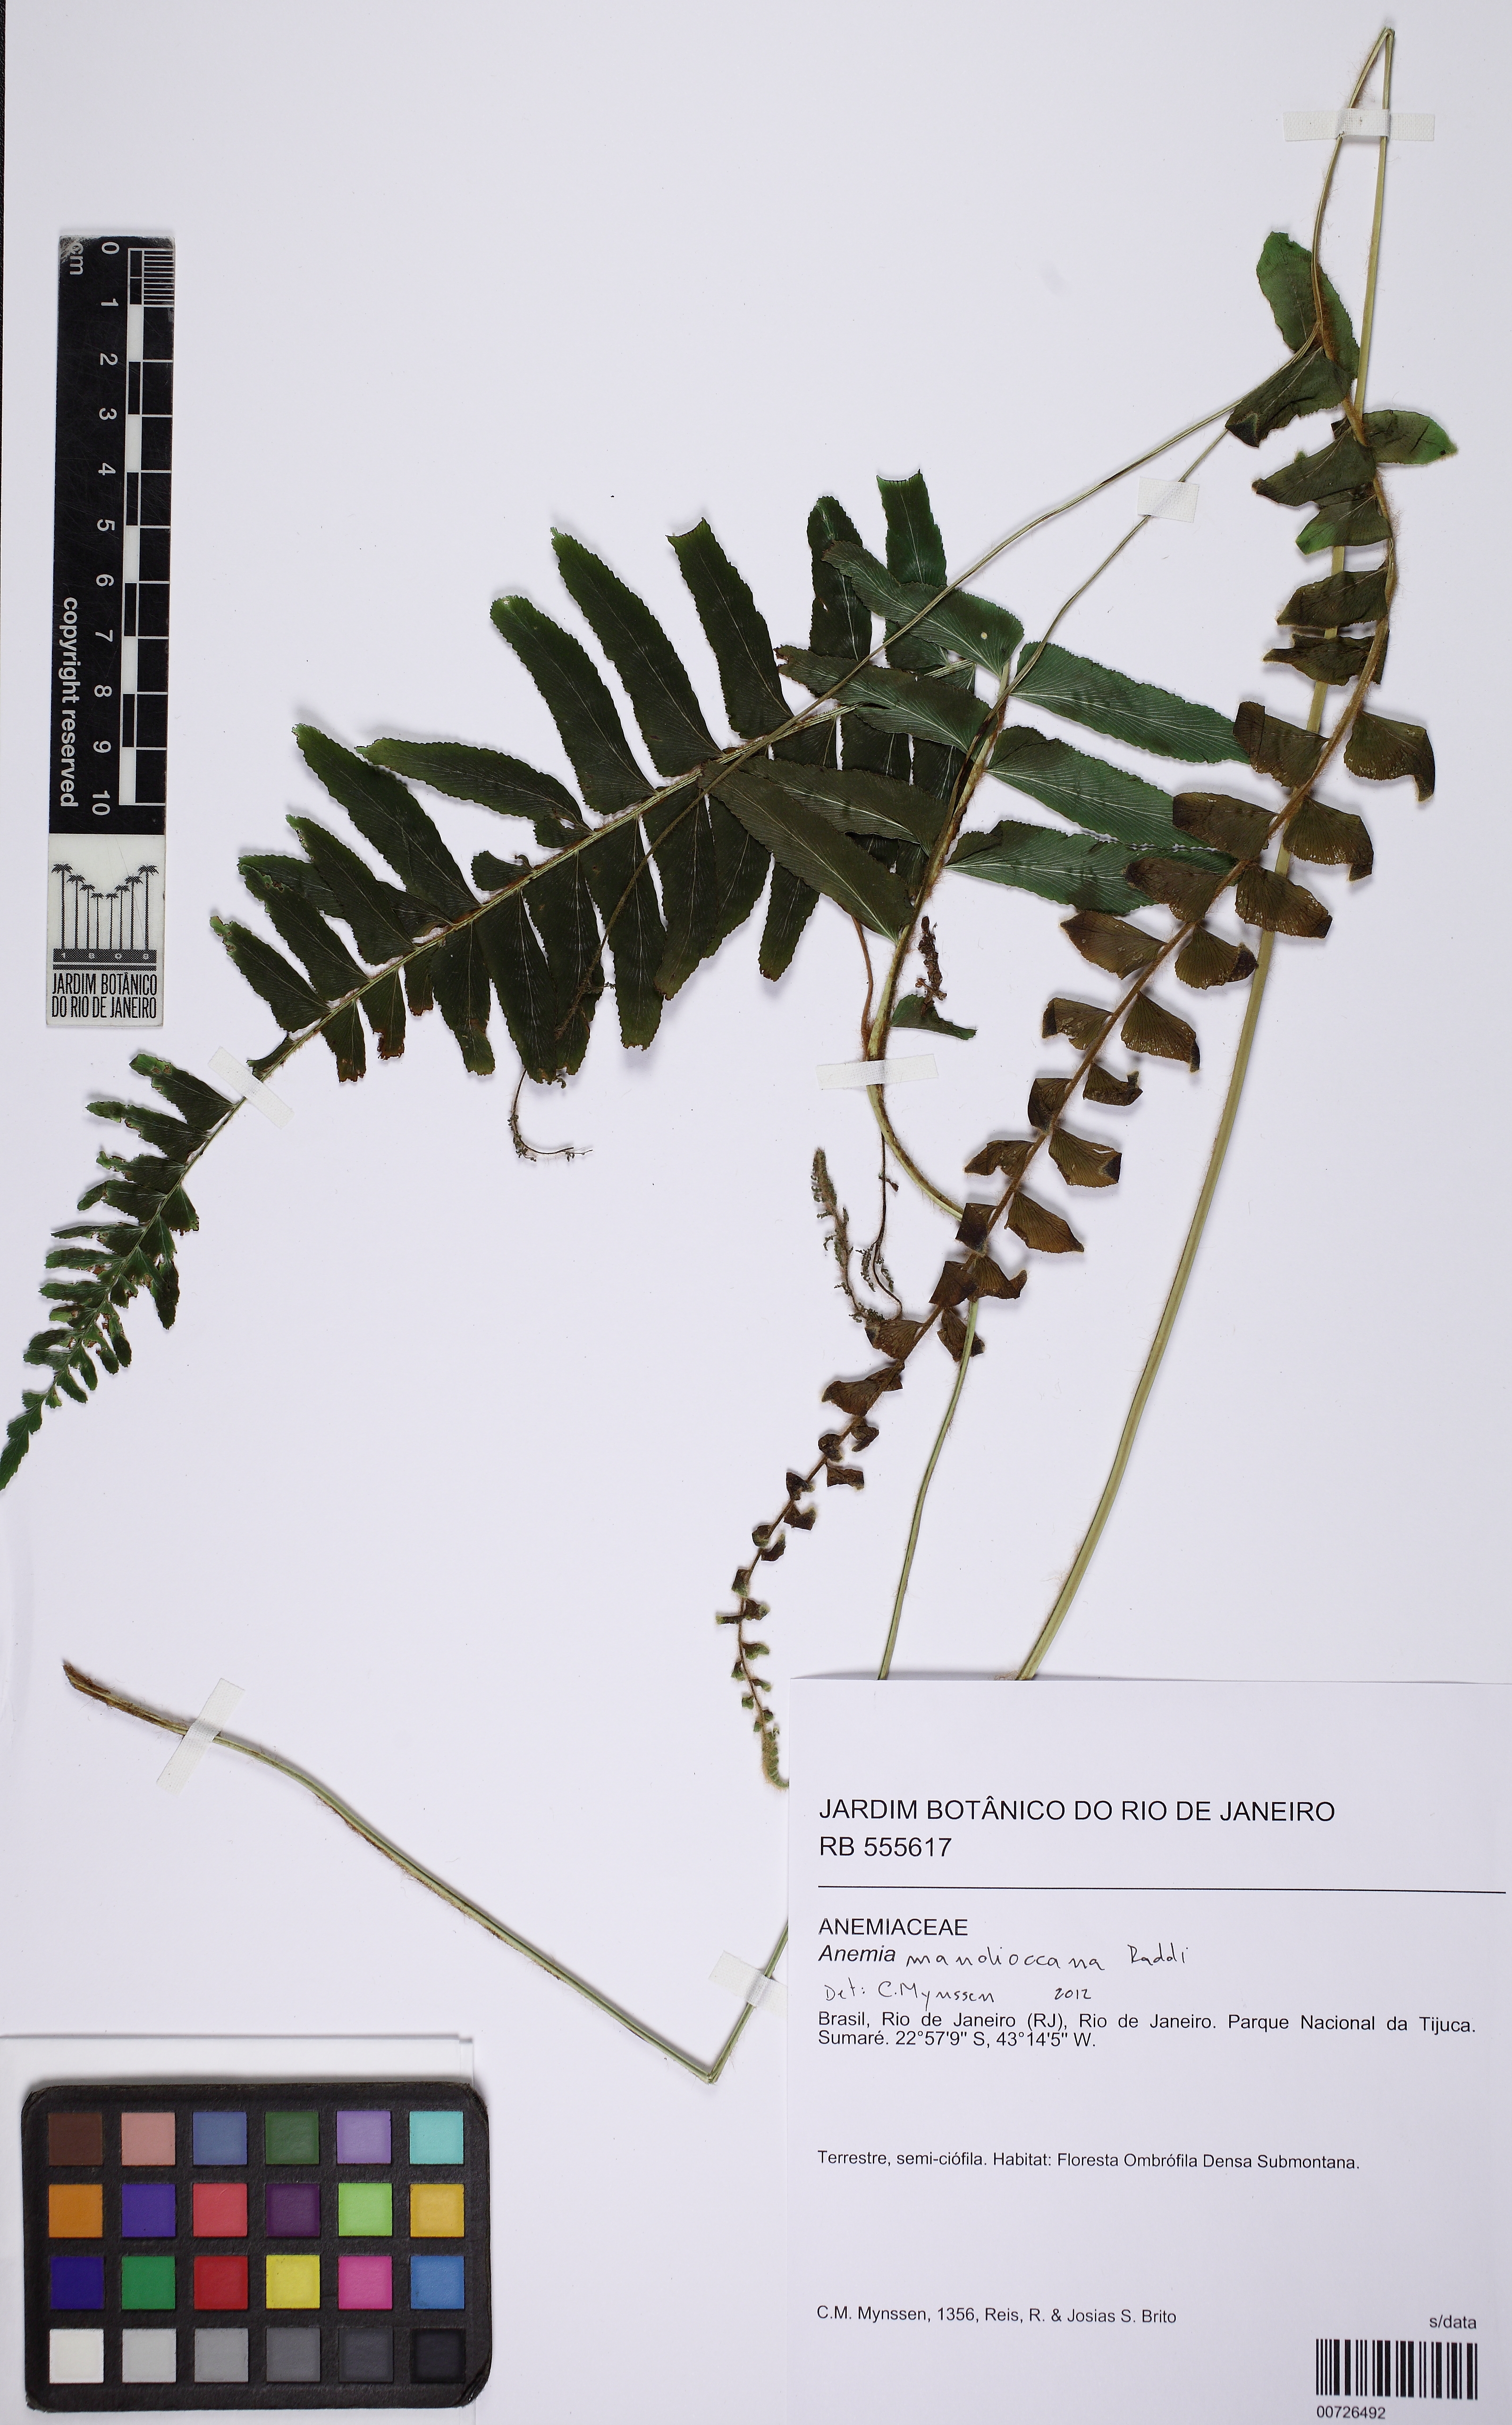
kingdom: Plantae
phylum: Tracheophyta
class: Polypodiopsida
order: Schizaeales
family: Anemiaceae
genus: Anemia
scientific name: Anemia mandiocana
